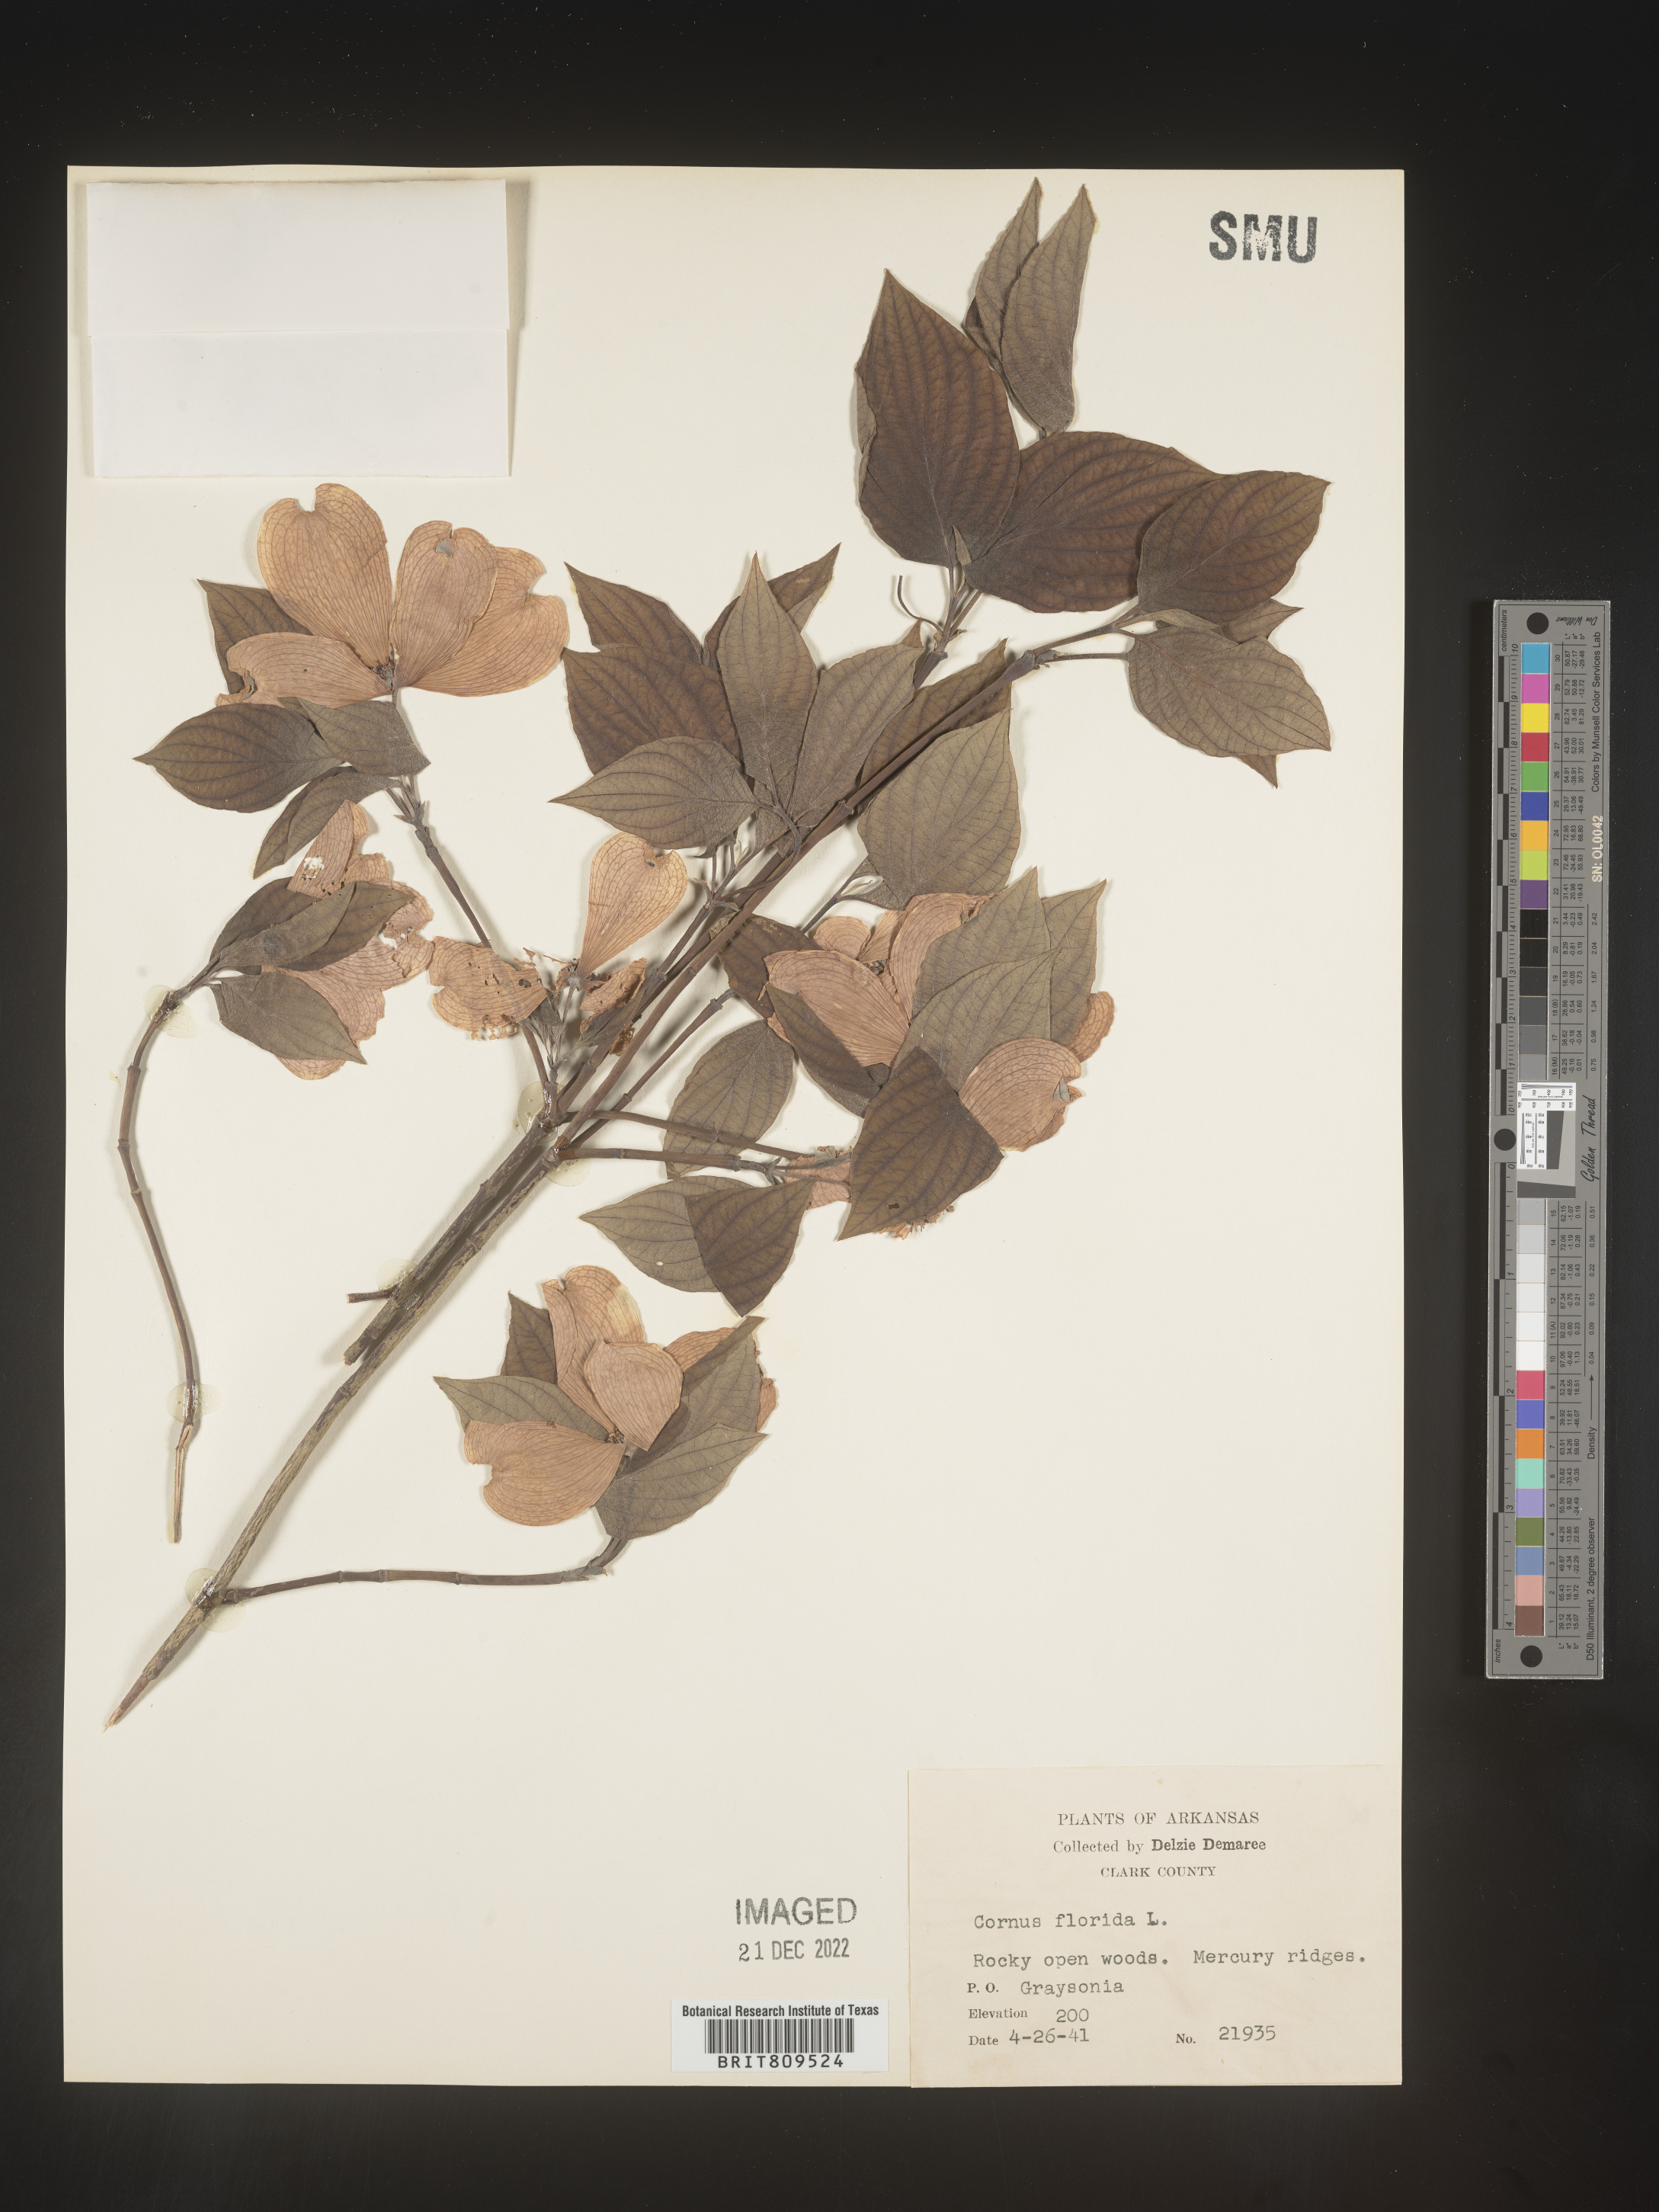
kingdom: Plantae
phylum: Tracheophyta
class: Magnoliopsida
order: Cornales
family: Cornaceae
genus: Cornus
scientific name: Cornus florida
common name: Flowering dogwood
